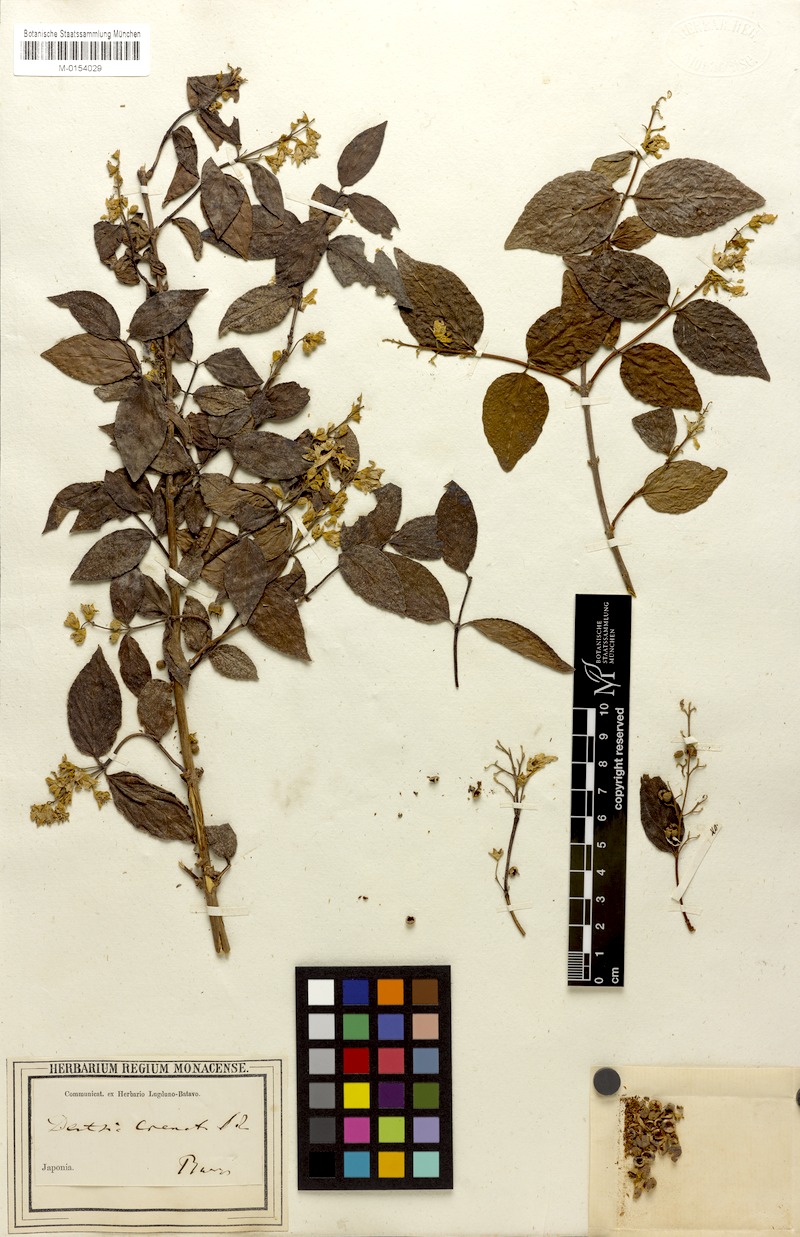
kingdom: Plantae
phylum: Tracheophyta
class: Magnoliopsida
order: Cornales
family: Hydrangeaceae
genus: Deutzia
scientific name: Deutzia crenata
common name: Deutzia
